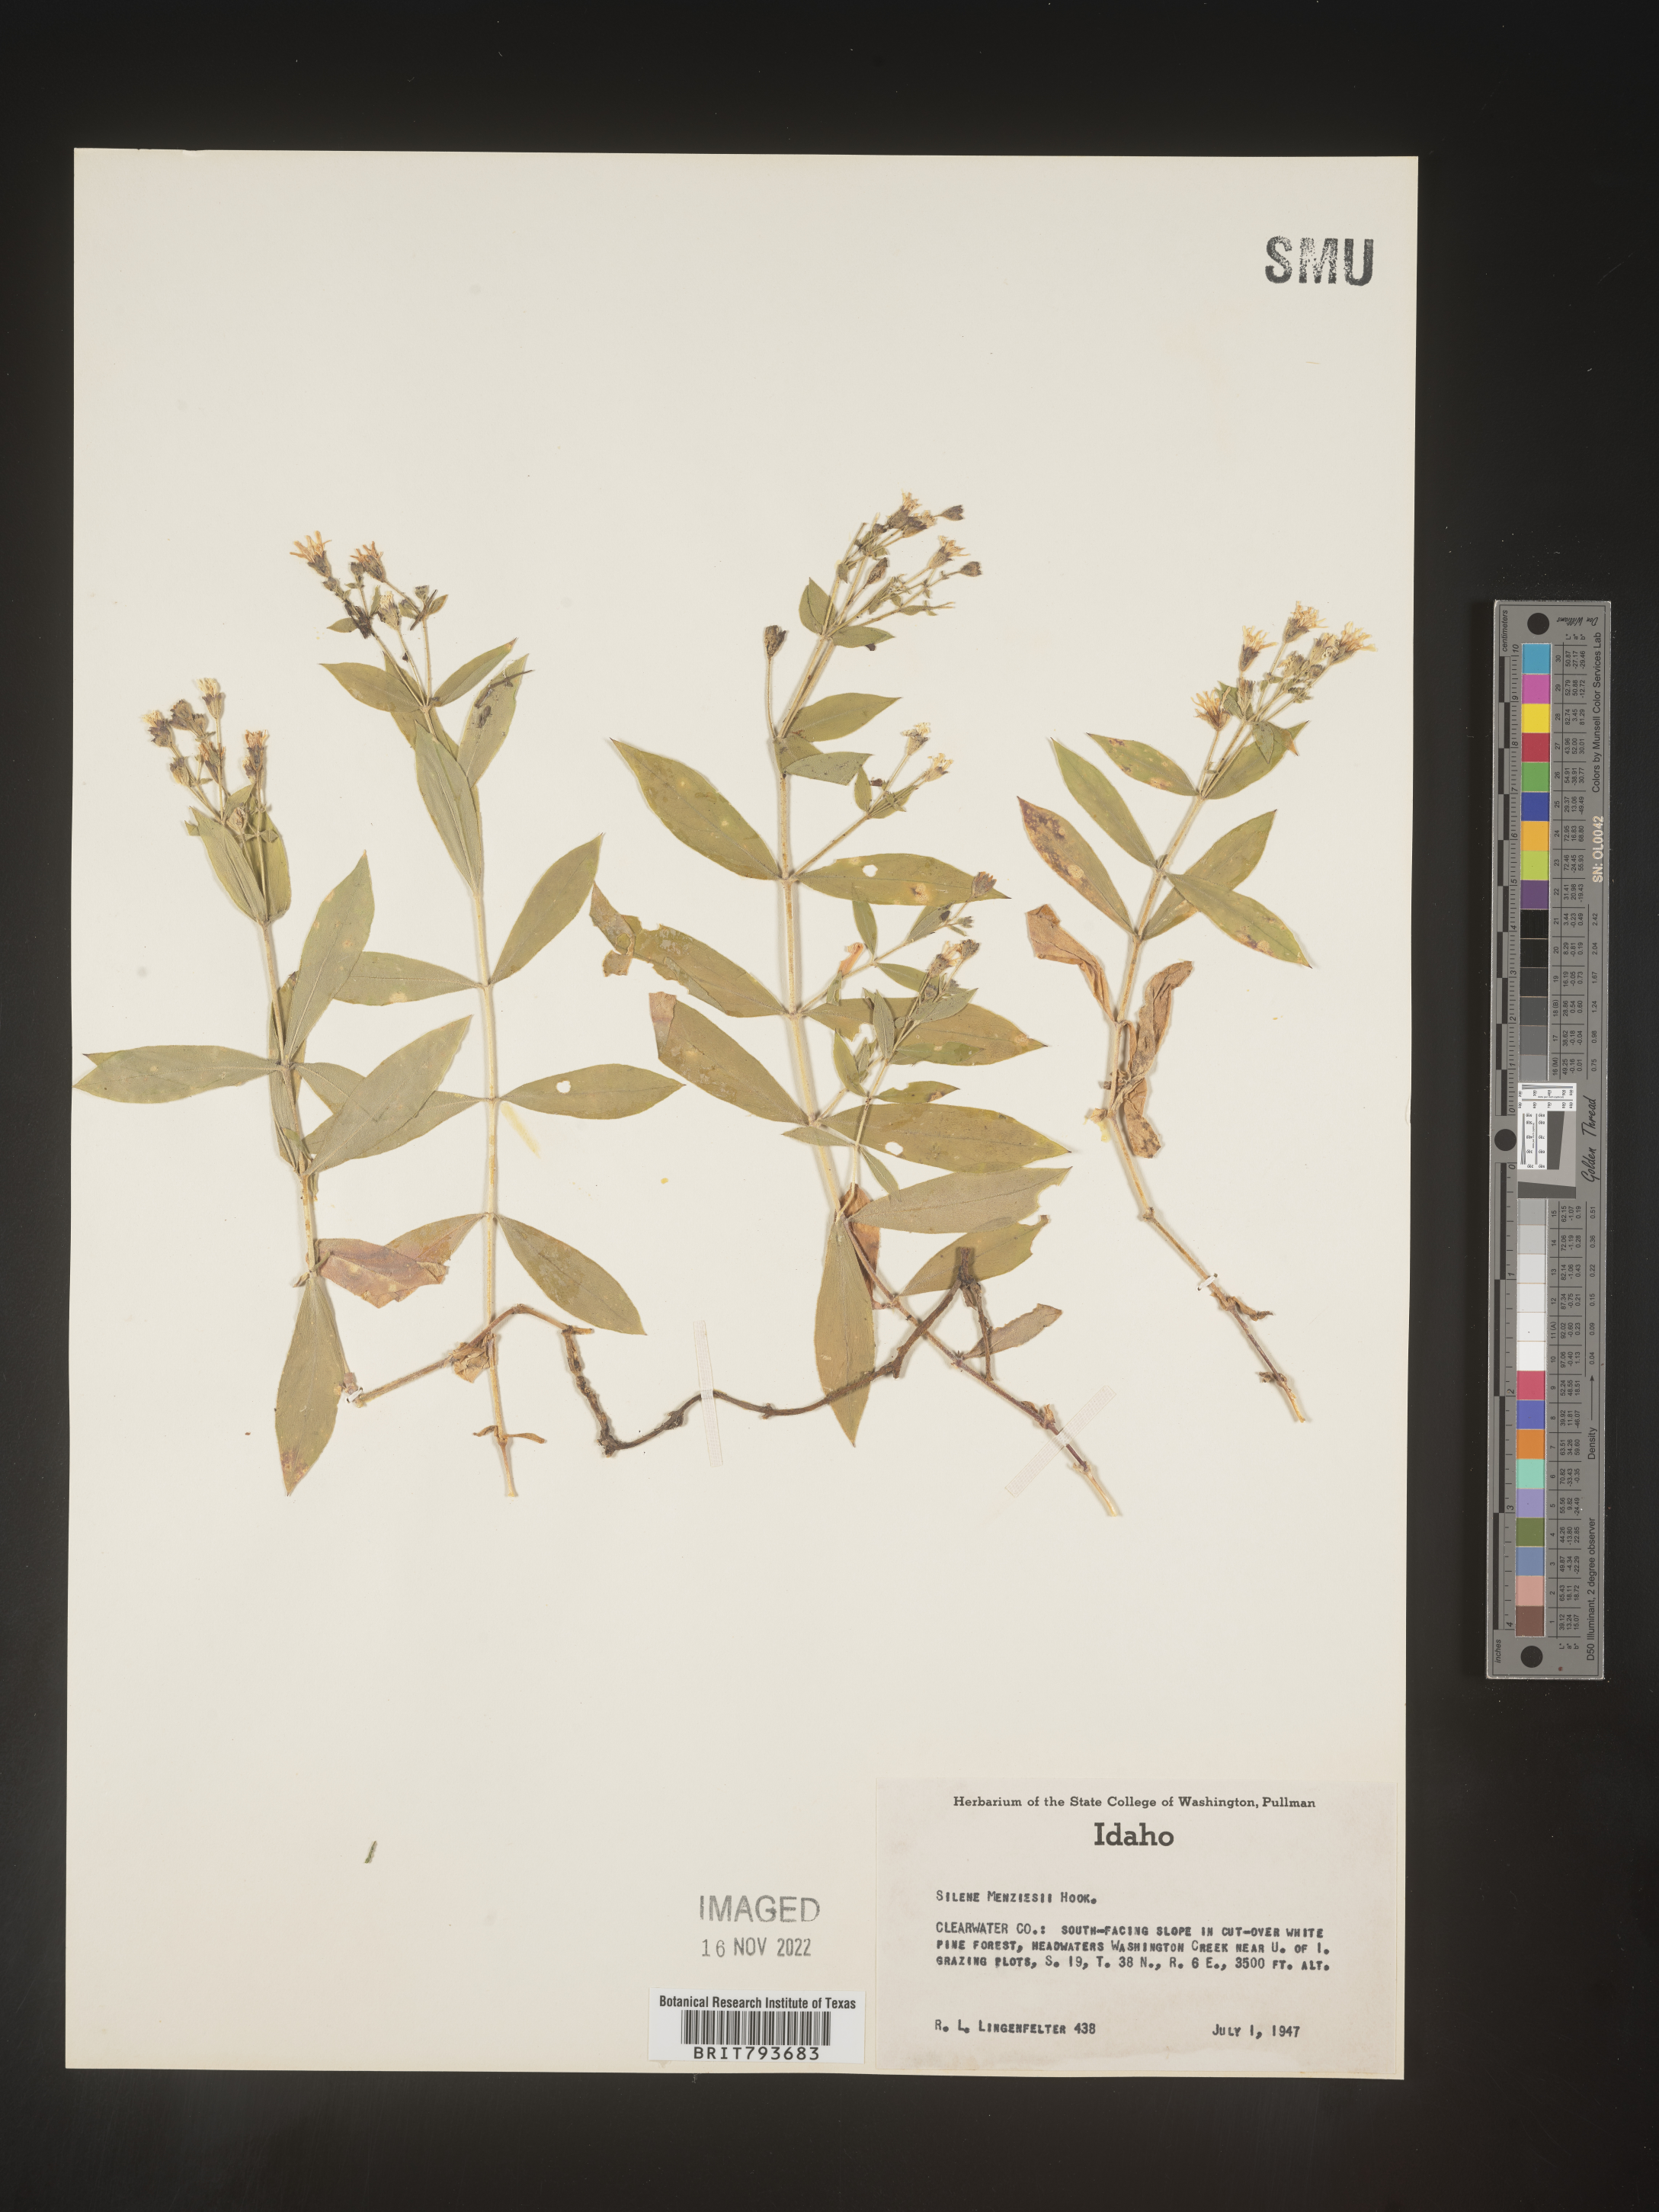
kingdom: Plantae
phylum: Tracheophyta
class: Magnoliopsida
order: Caryophyllales
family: Caryophyllaceae
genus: Silene
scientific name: Silene menziesii
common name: Menzies's catchfly
